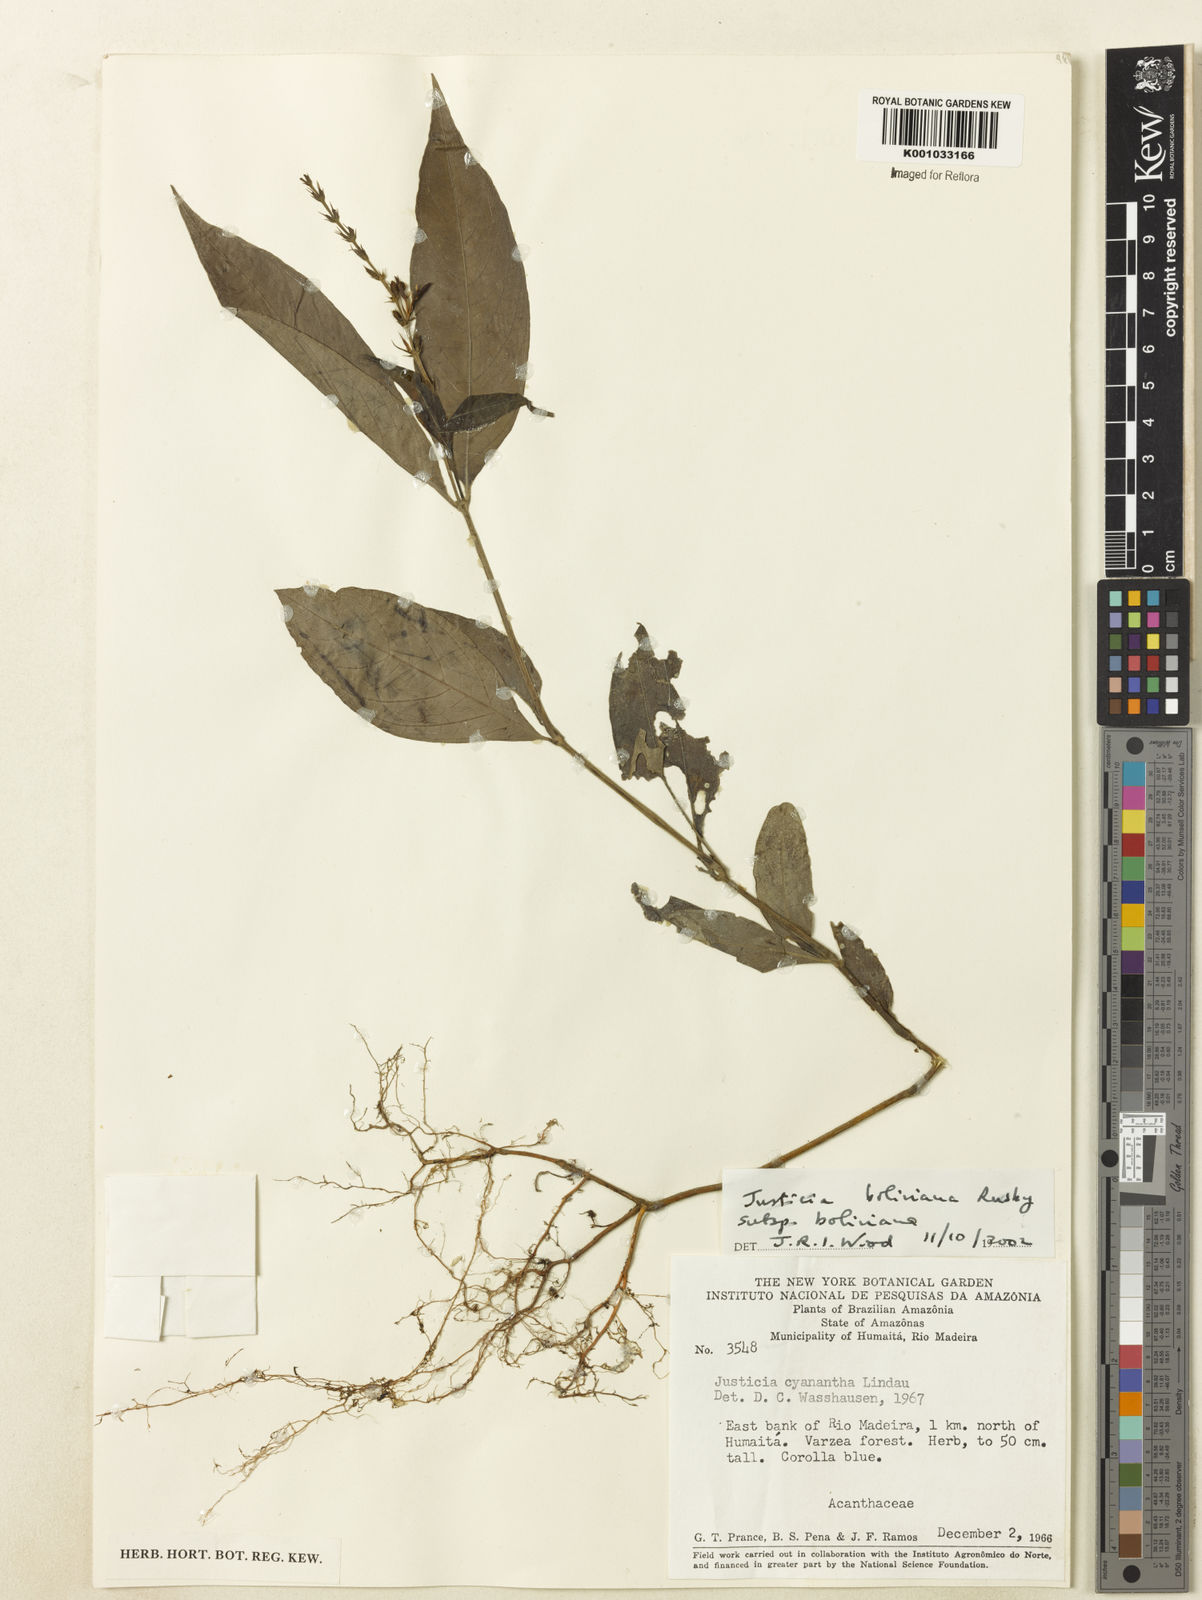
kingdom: Plantae
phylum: Tracheophyta
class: Magnoliopsida
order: Lamiales
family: Acanthaceae
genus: Justicia
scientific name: Justicia boliviana
